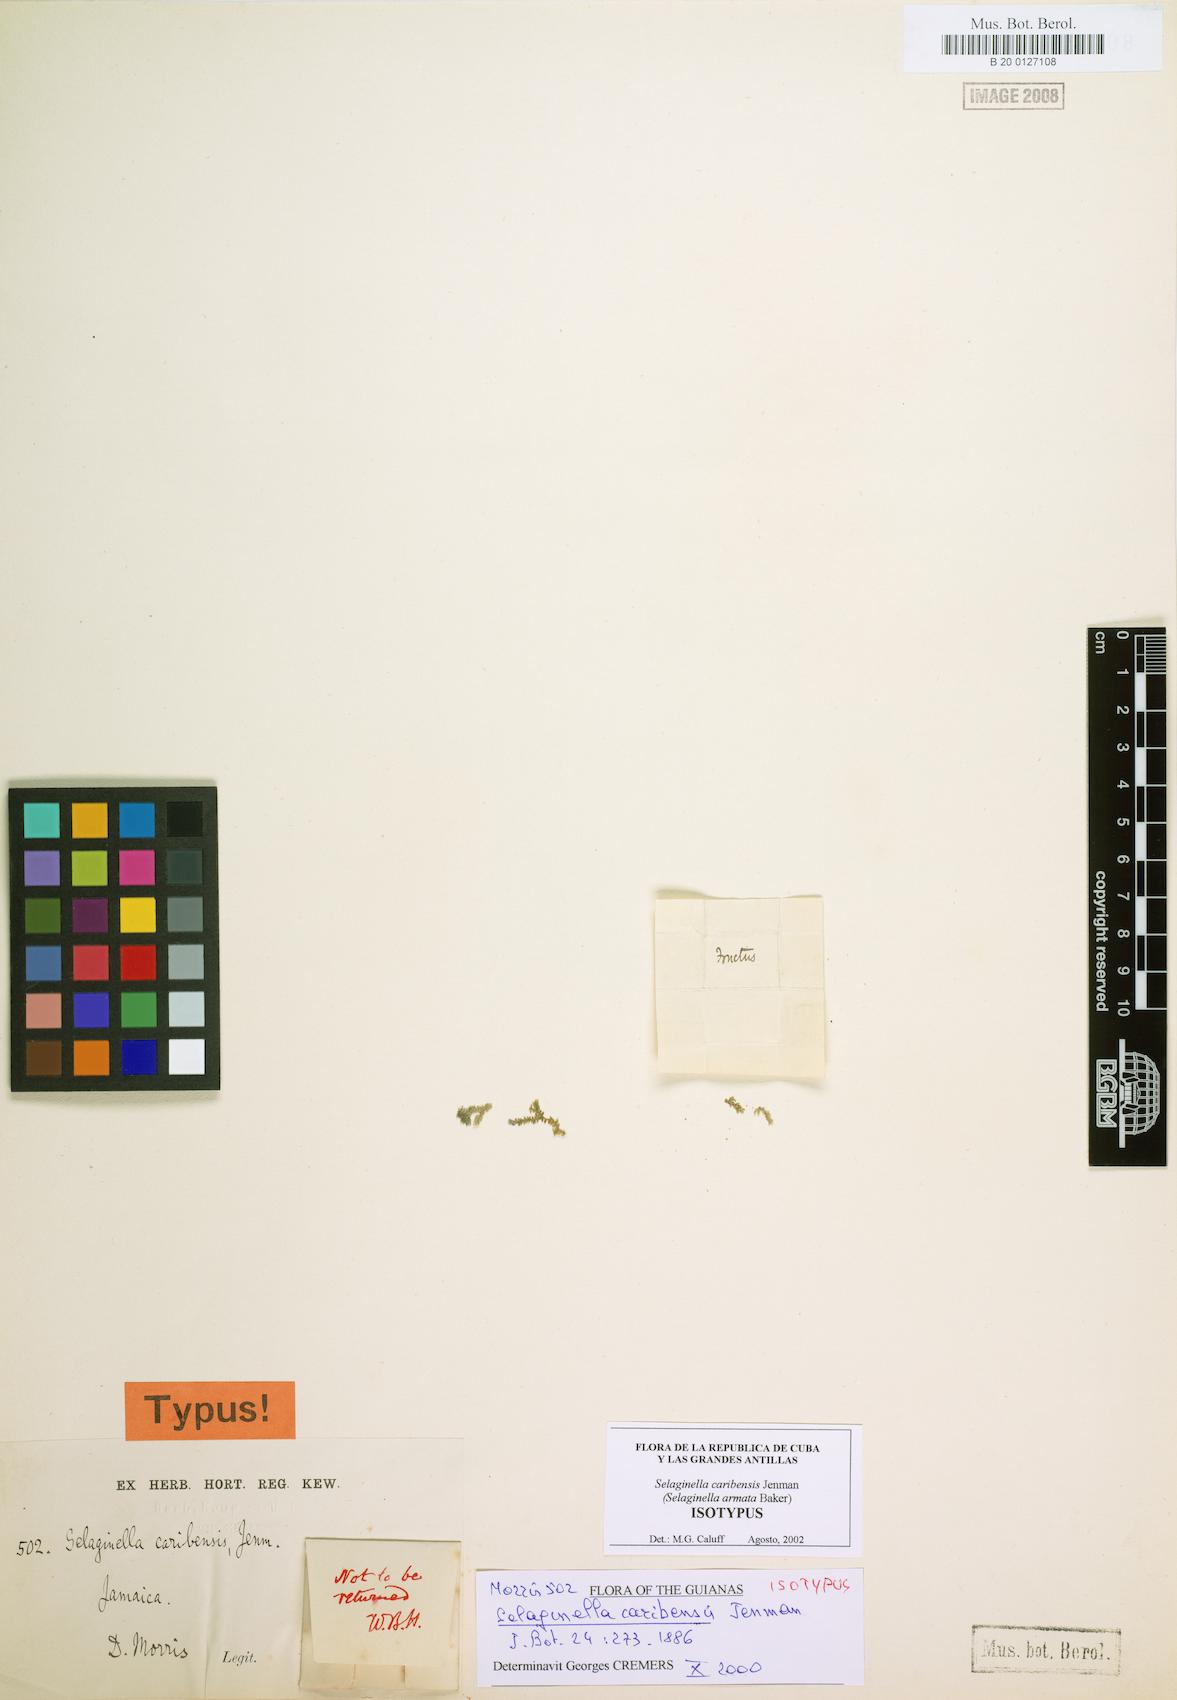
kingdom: Plantae
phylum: Tracheophyta
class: Lycopodiopsida
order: Selaginellales
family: Selaginellaceae
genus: Selaginella
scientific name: Selaginella armata
